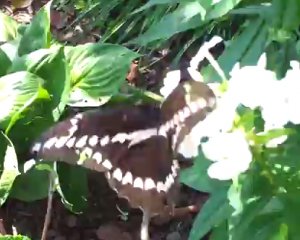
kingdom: Animalia
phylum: Arthropoda
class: Insecta
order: Lepidoptera
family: Papilionidae
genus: Papilio
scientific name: Papilio cresphontes
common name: Eastern Giant Swallowtail
